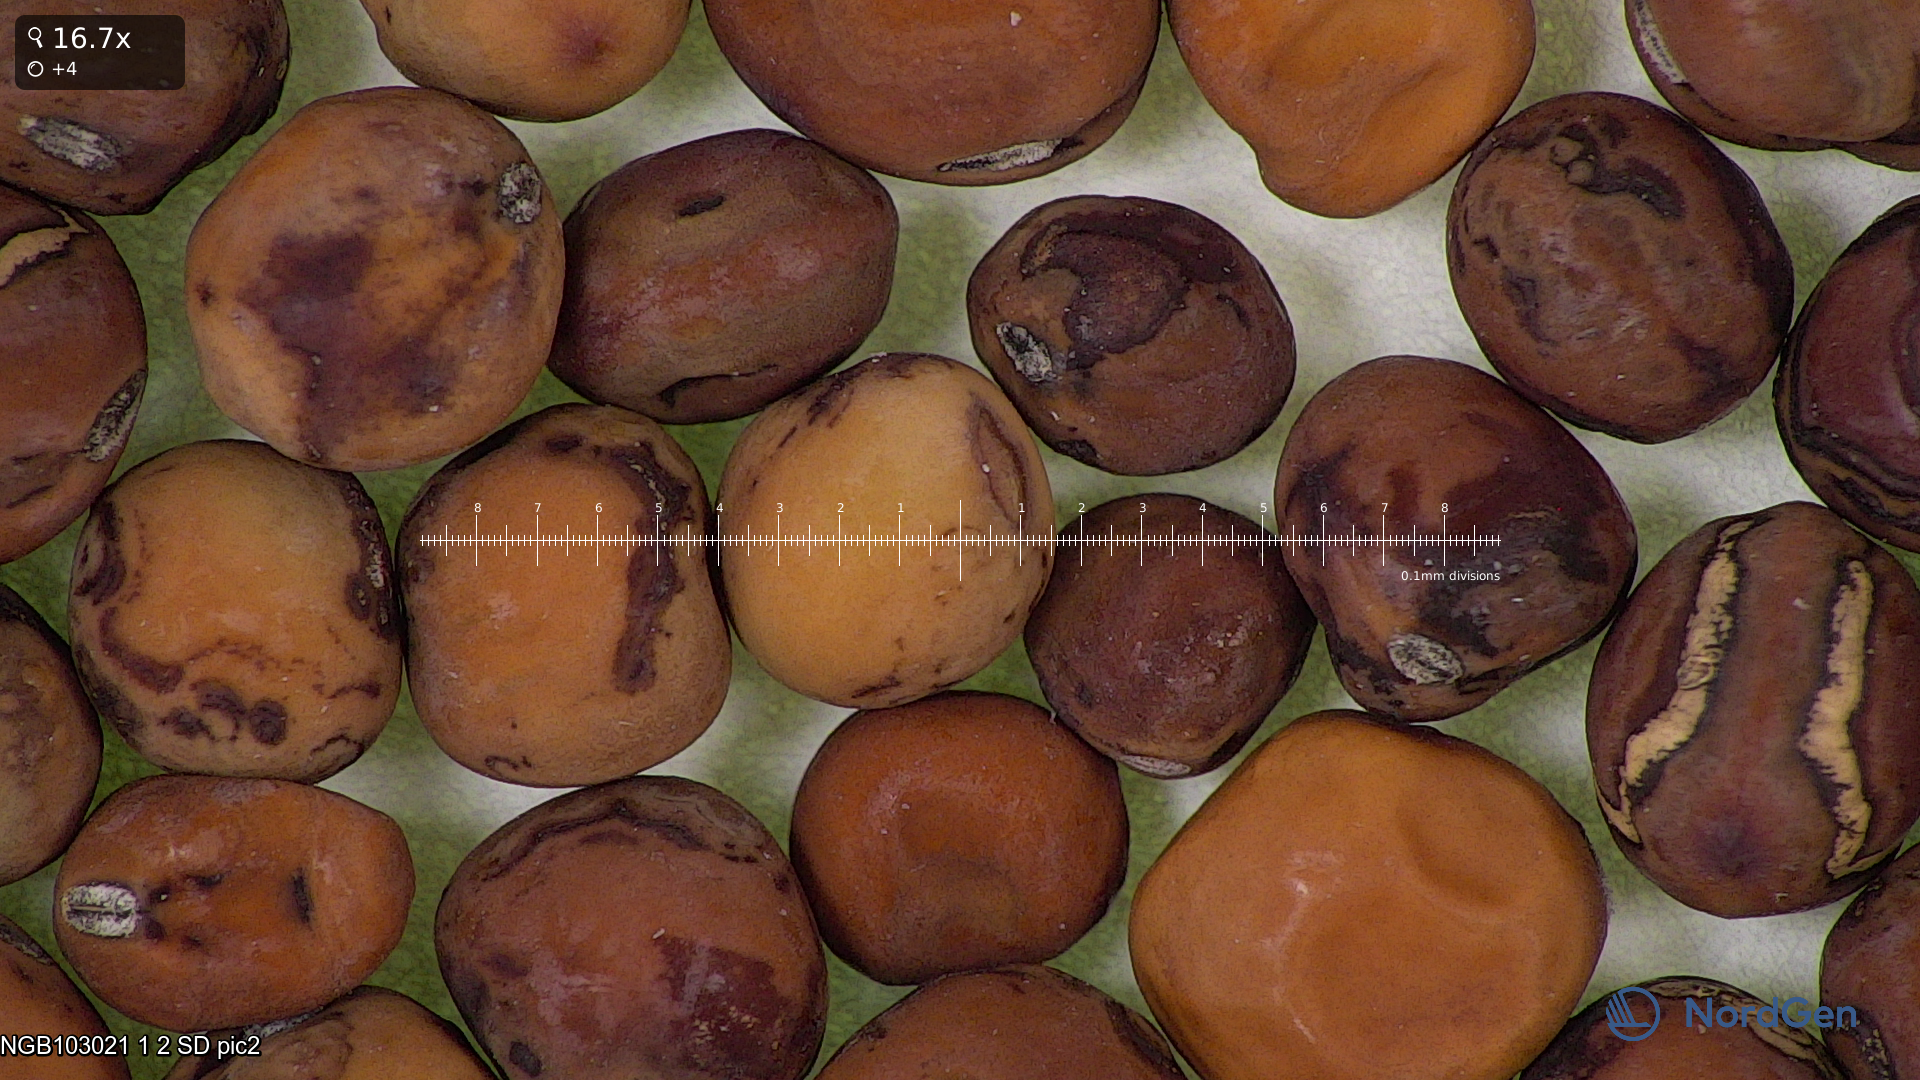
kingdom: Plantae
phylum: Tracheophyta
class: Magnoliopsida
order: Fabales
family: Fabaceae
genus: Lathyrus
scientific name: Lathyrus oleraceus
